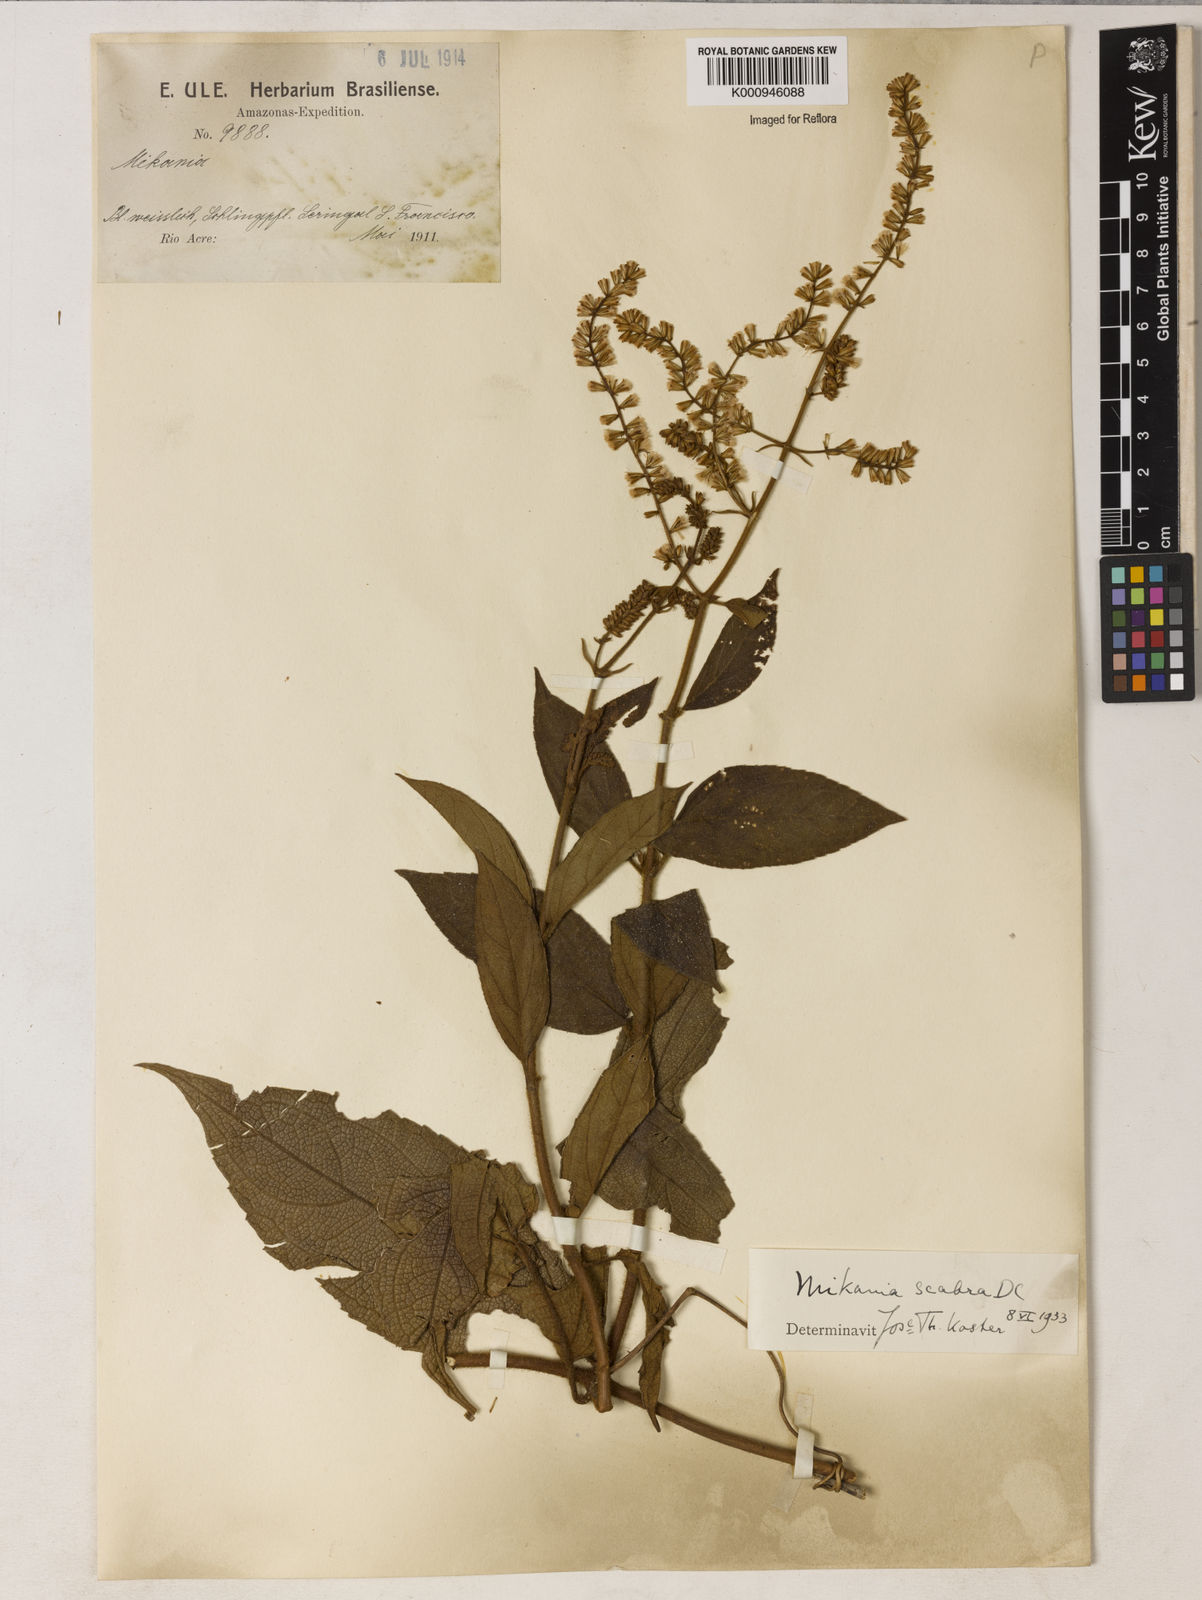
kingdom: Plantae
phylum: Tracheophyta
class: Magnoliopsida
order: Asterales
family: Asteraceae
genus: Mikania
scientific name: Mikania psilostachya
